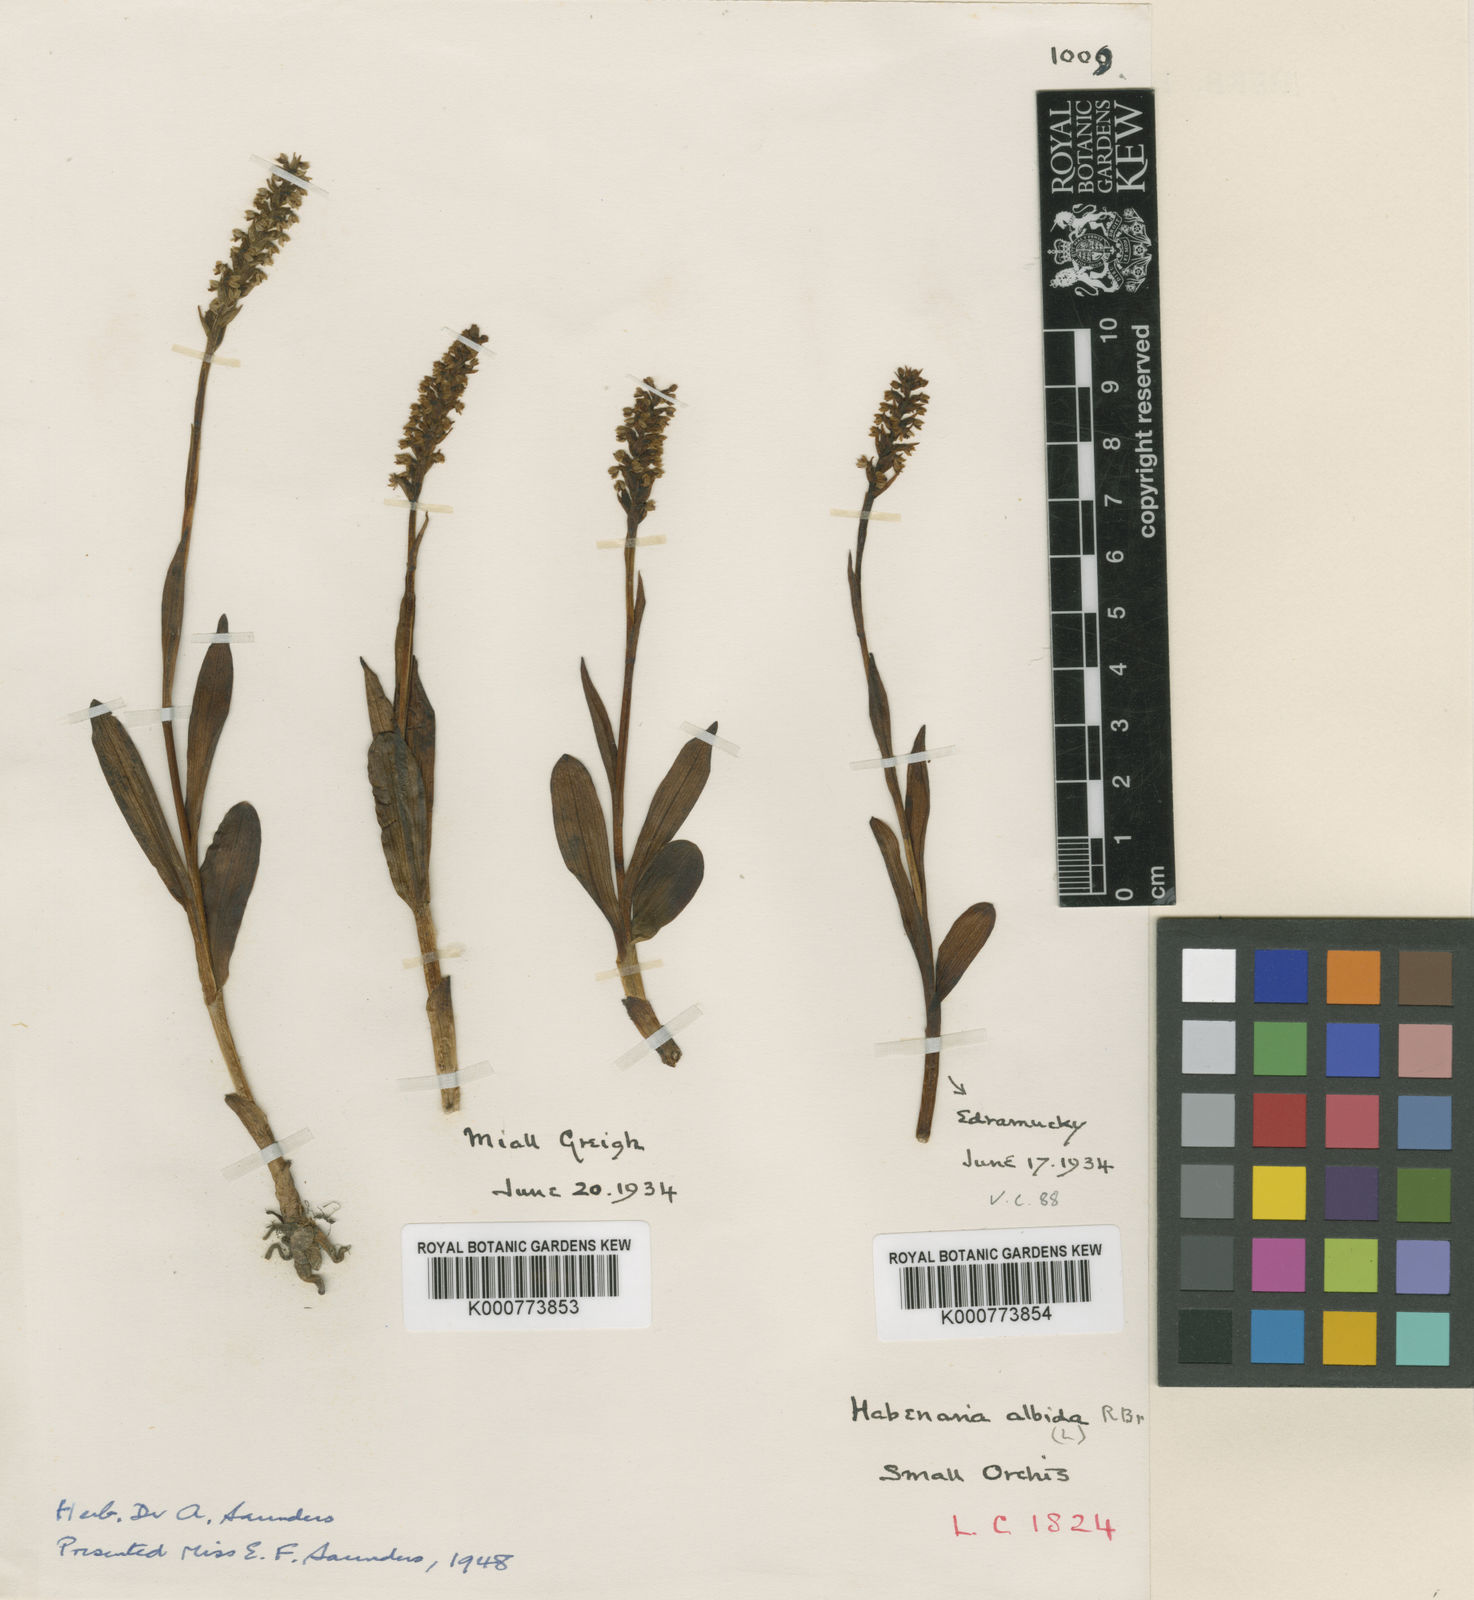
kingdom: Plantae
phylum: Tracheophyta
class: Liliopsida
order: Asparagales
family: Orchidaceae
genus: Pseudorchis
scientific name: Pseudorchis
